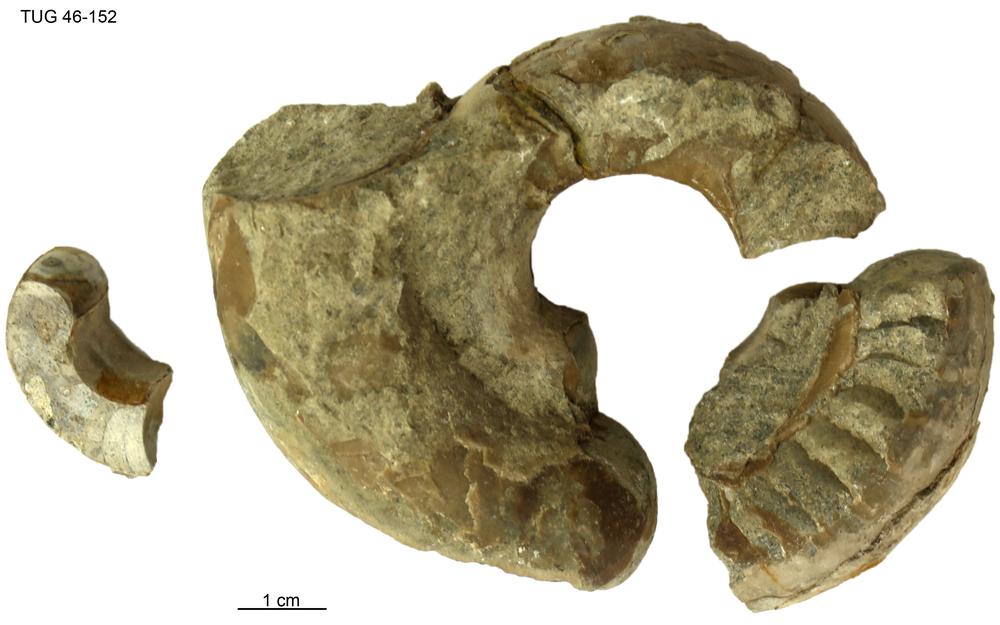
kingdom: Animalia
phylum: Mollusca
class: Cephalopoda
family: Estonioceratidae
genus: Estonioceras
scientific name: Estonioceras
